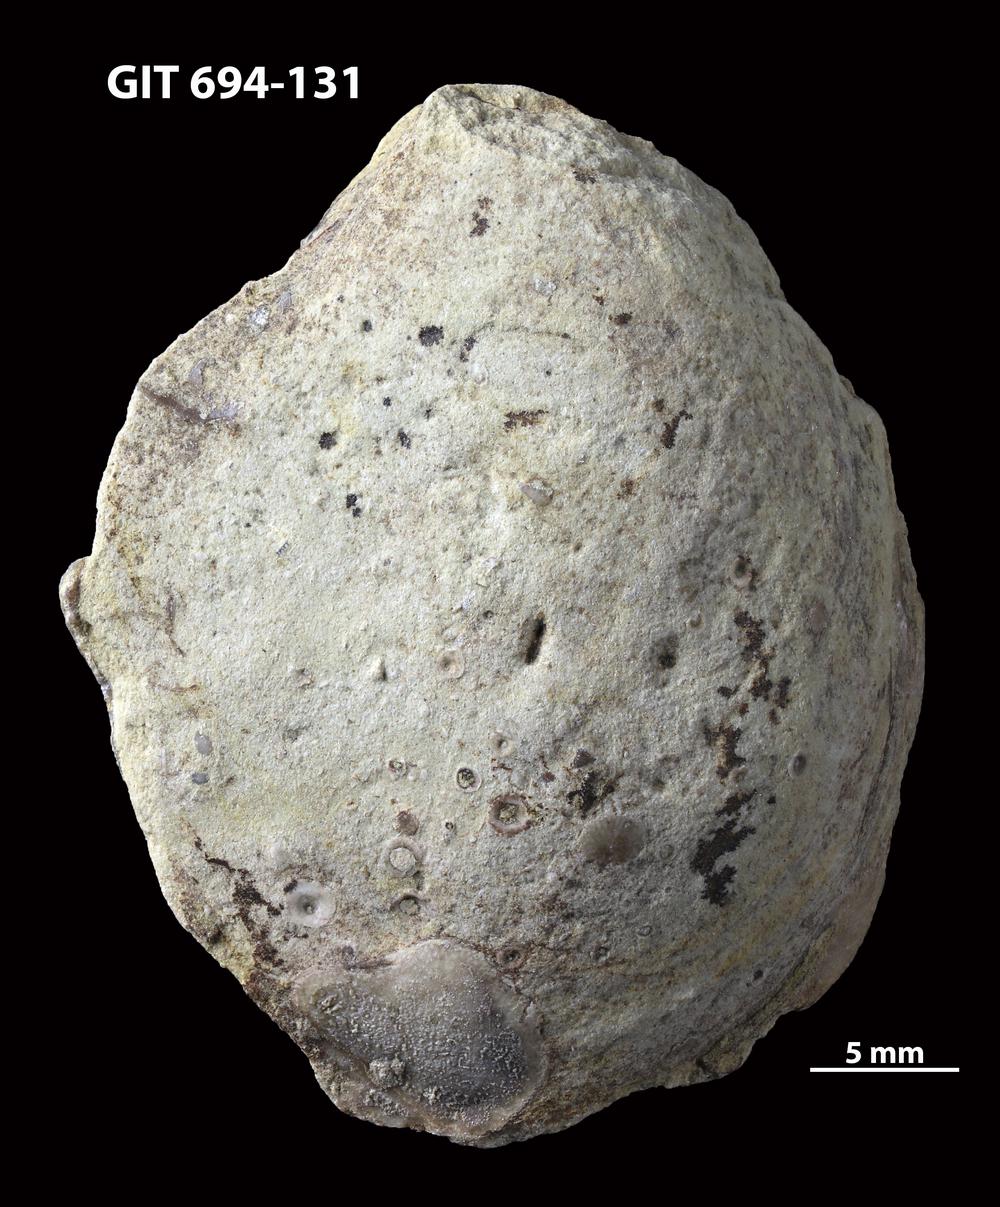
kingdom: Animalia
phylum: Mollusca
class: Bivalvia
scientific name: Bivalvia
